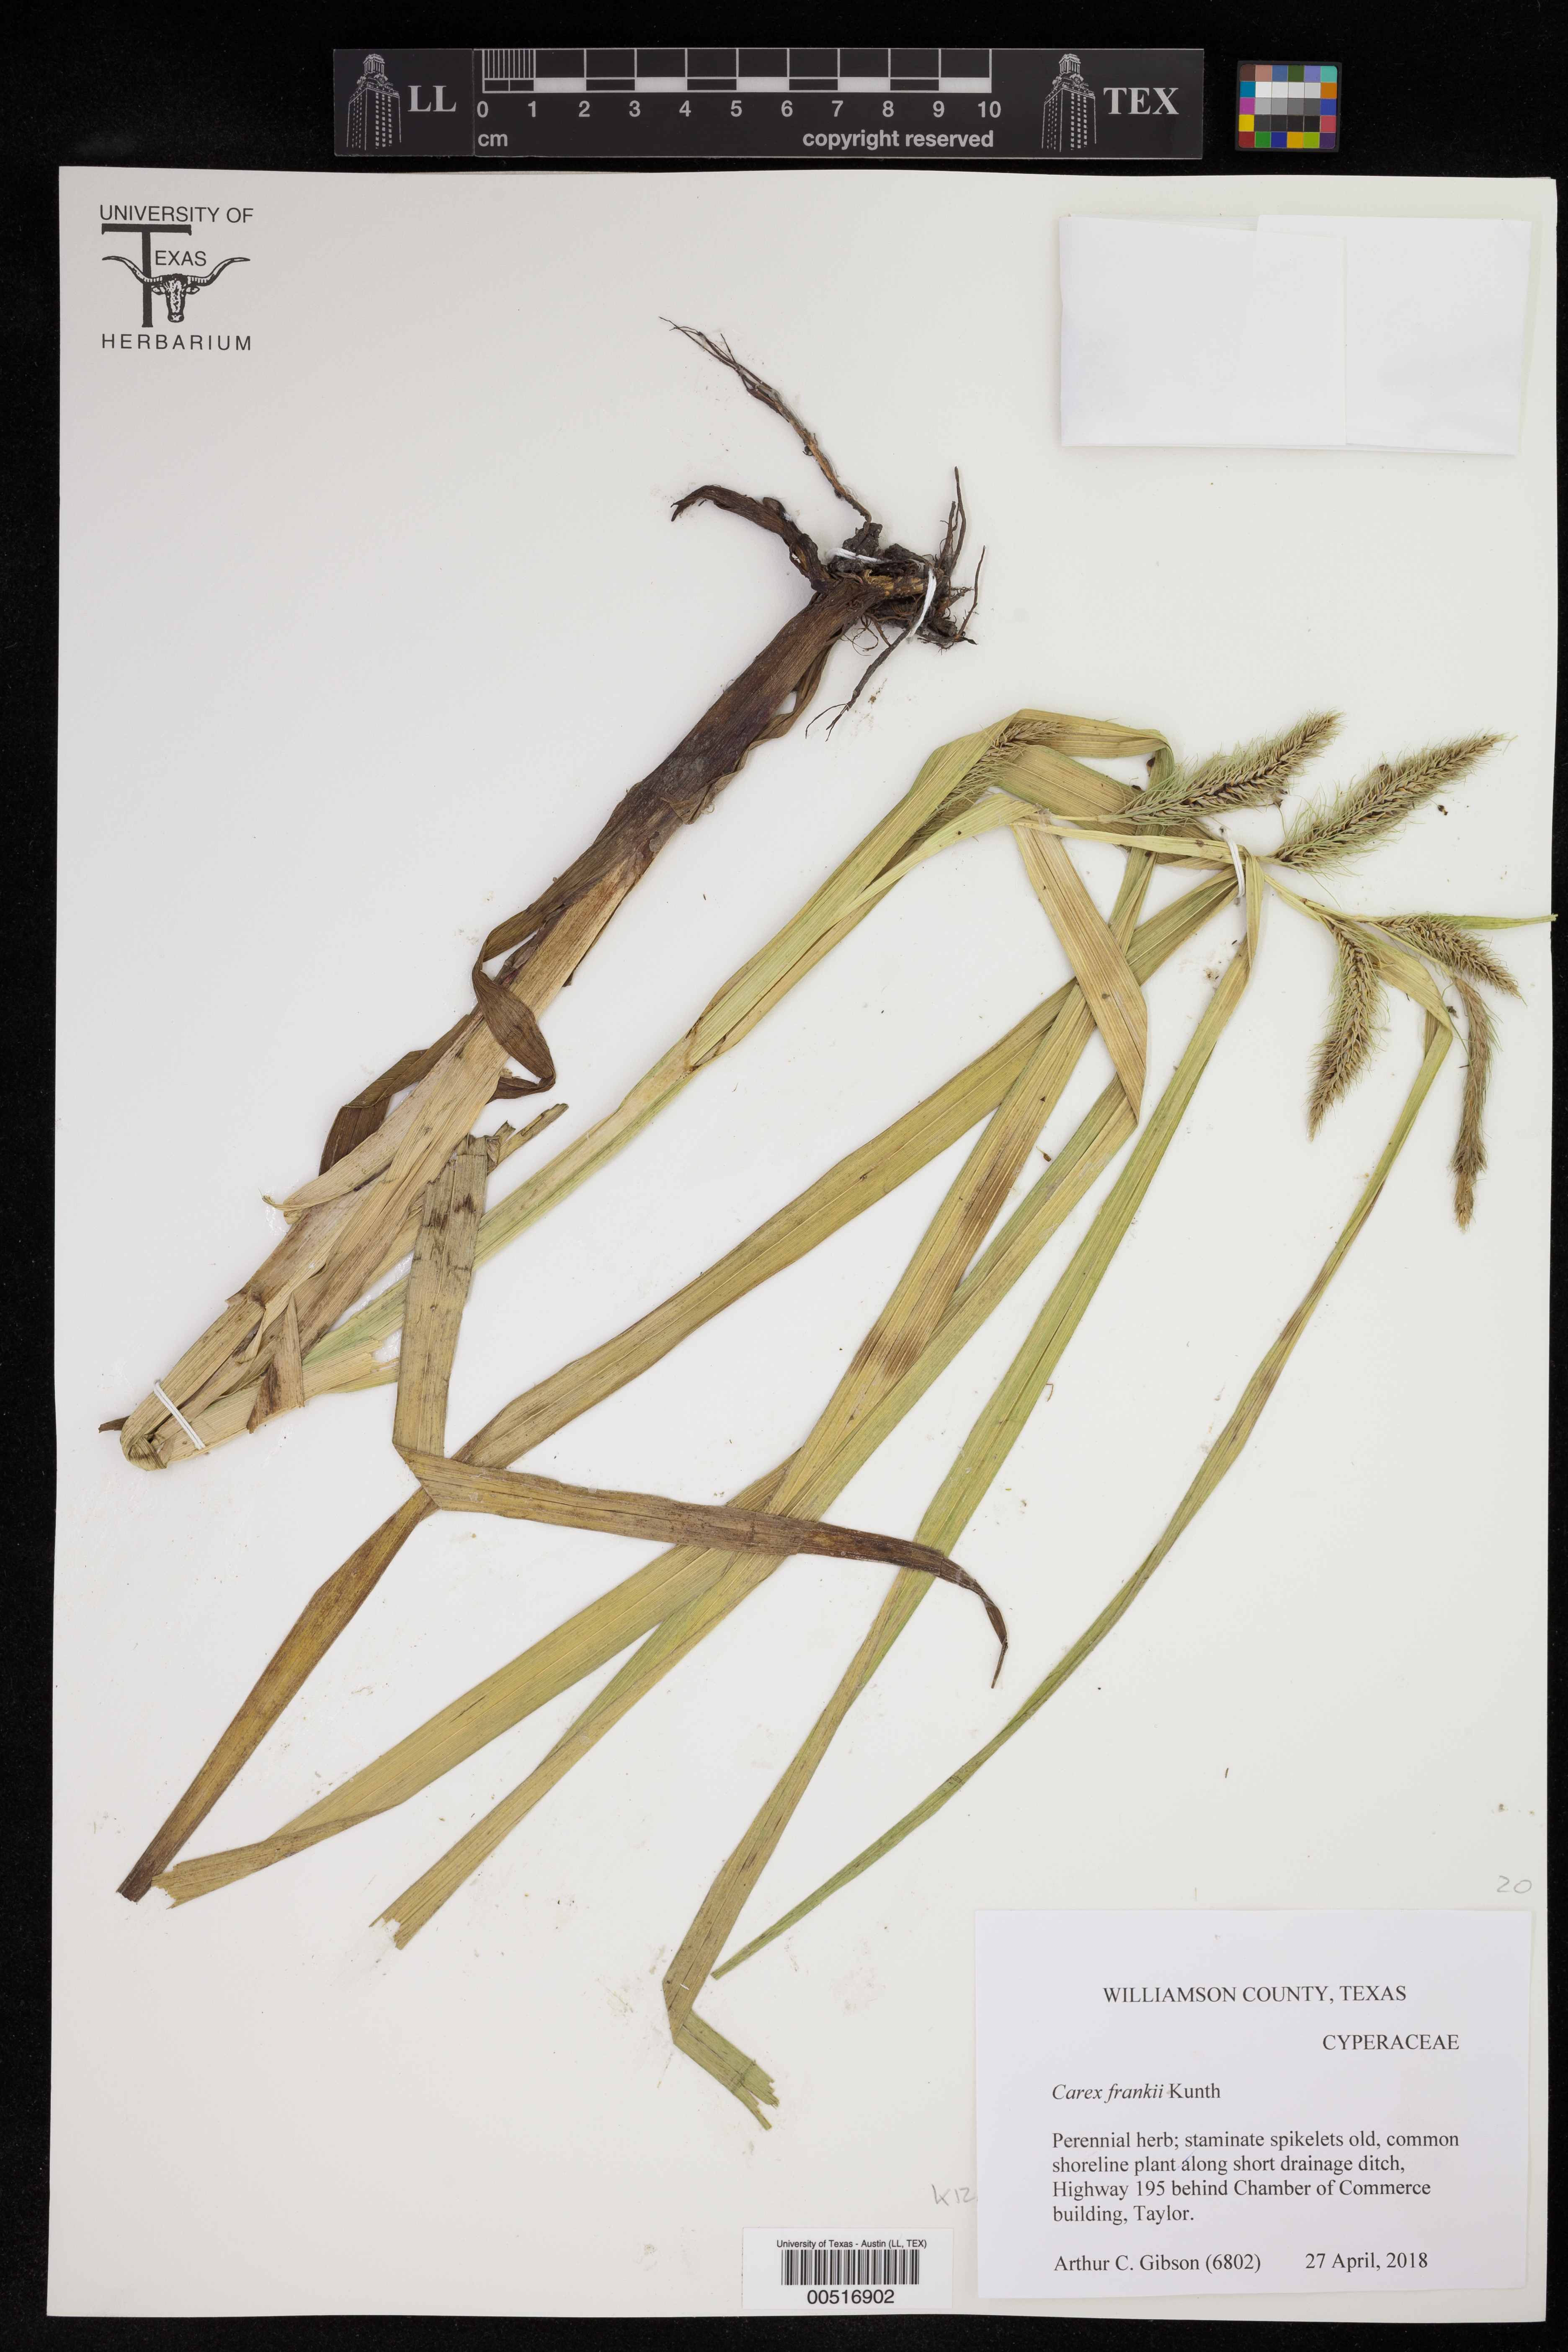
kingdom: Plantae
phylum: Tracheophyta
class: Liliopsida
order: Poales
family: Cyperaceae
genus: Carex
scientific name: Carex frankii
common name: Frank's sedge
